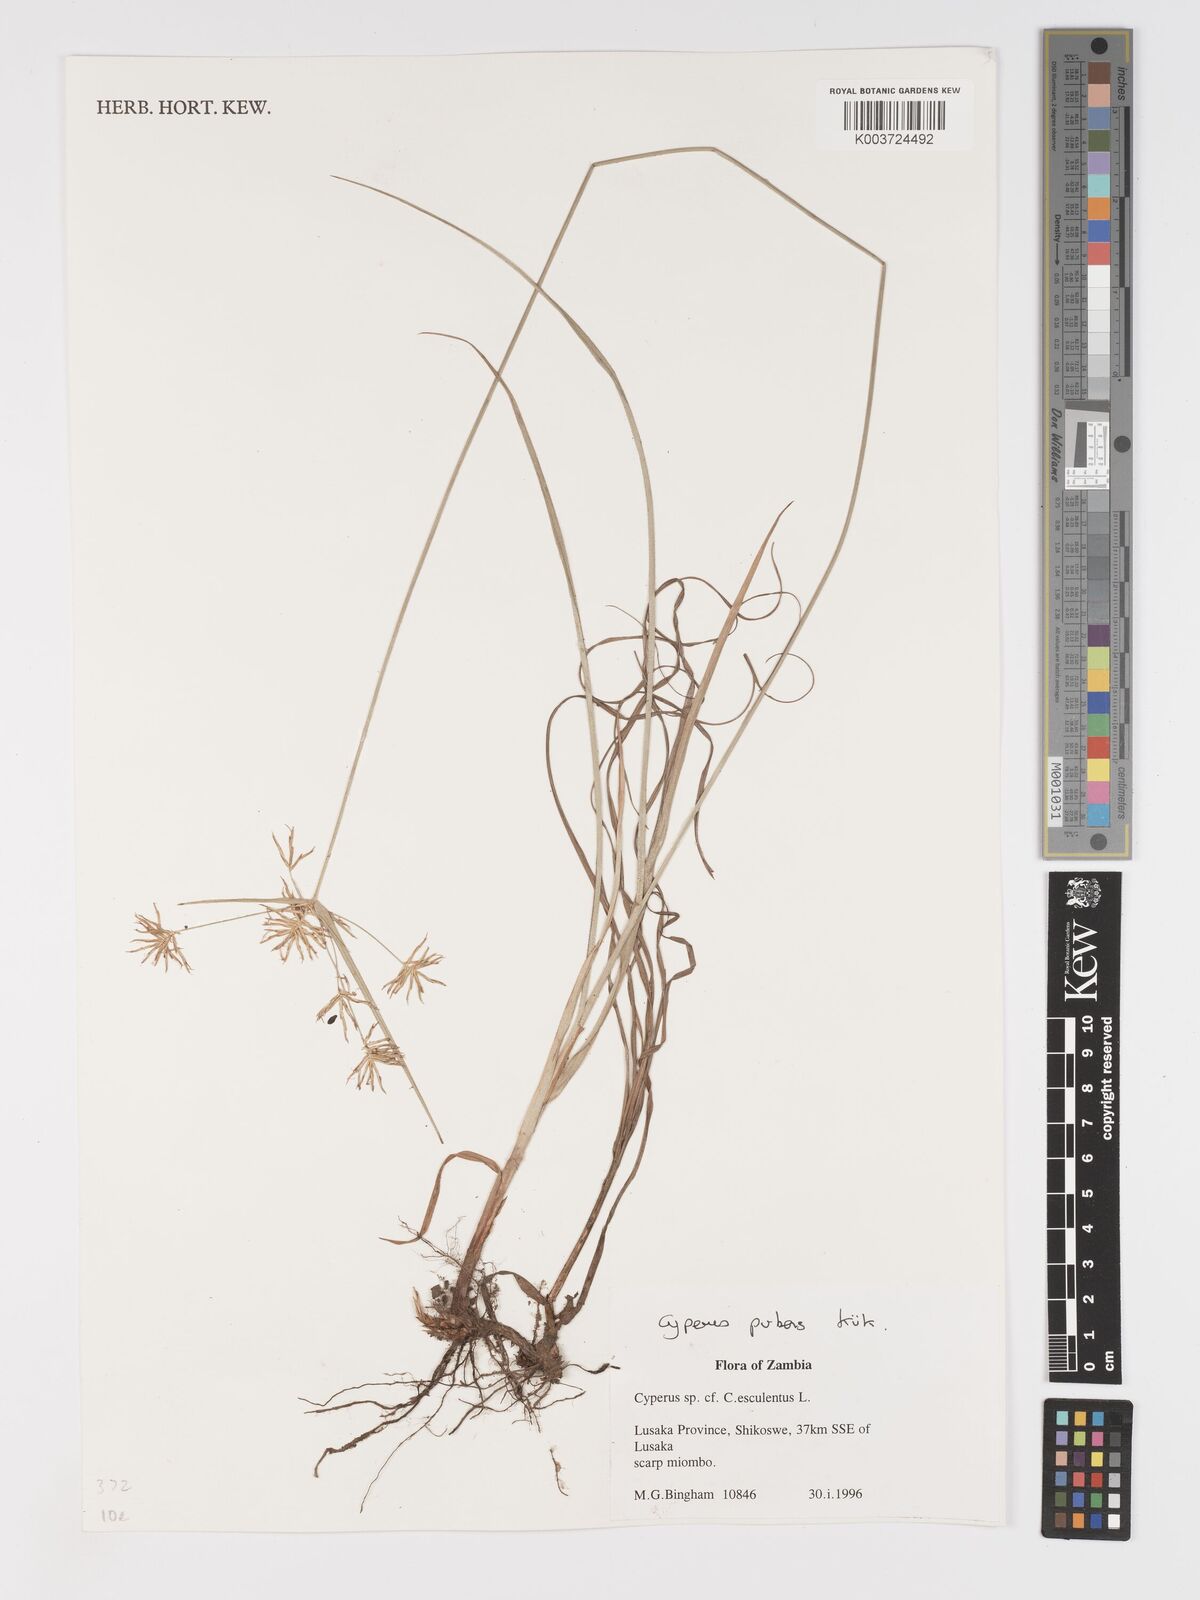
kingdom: Plantae
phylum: Tracheophyta
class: Liliopsida
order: Poales
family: Cyperaceae
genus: Cyperus
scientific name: Cyperus pubens
